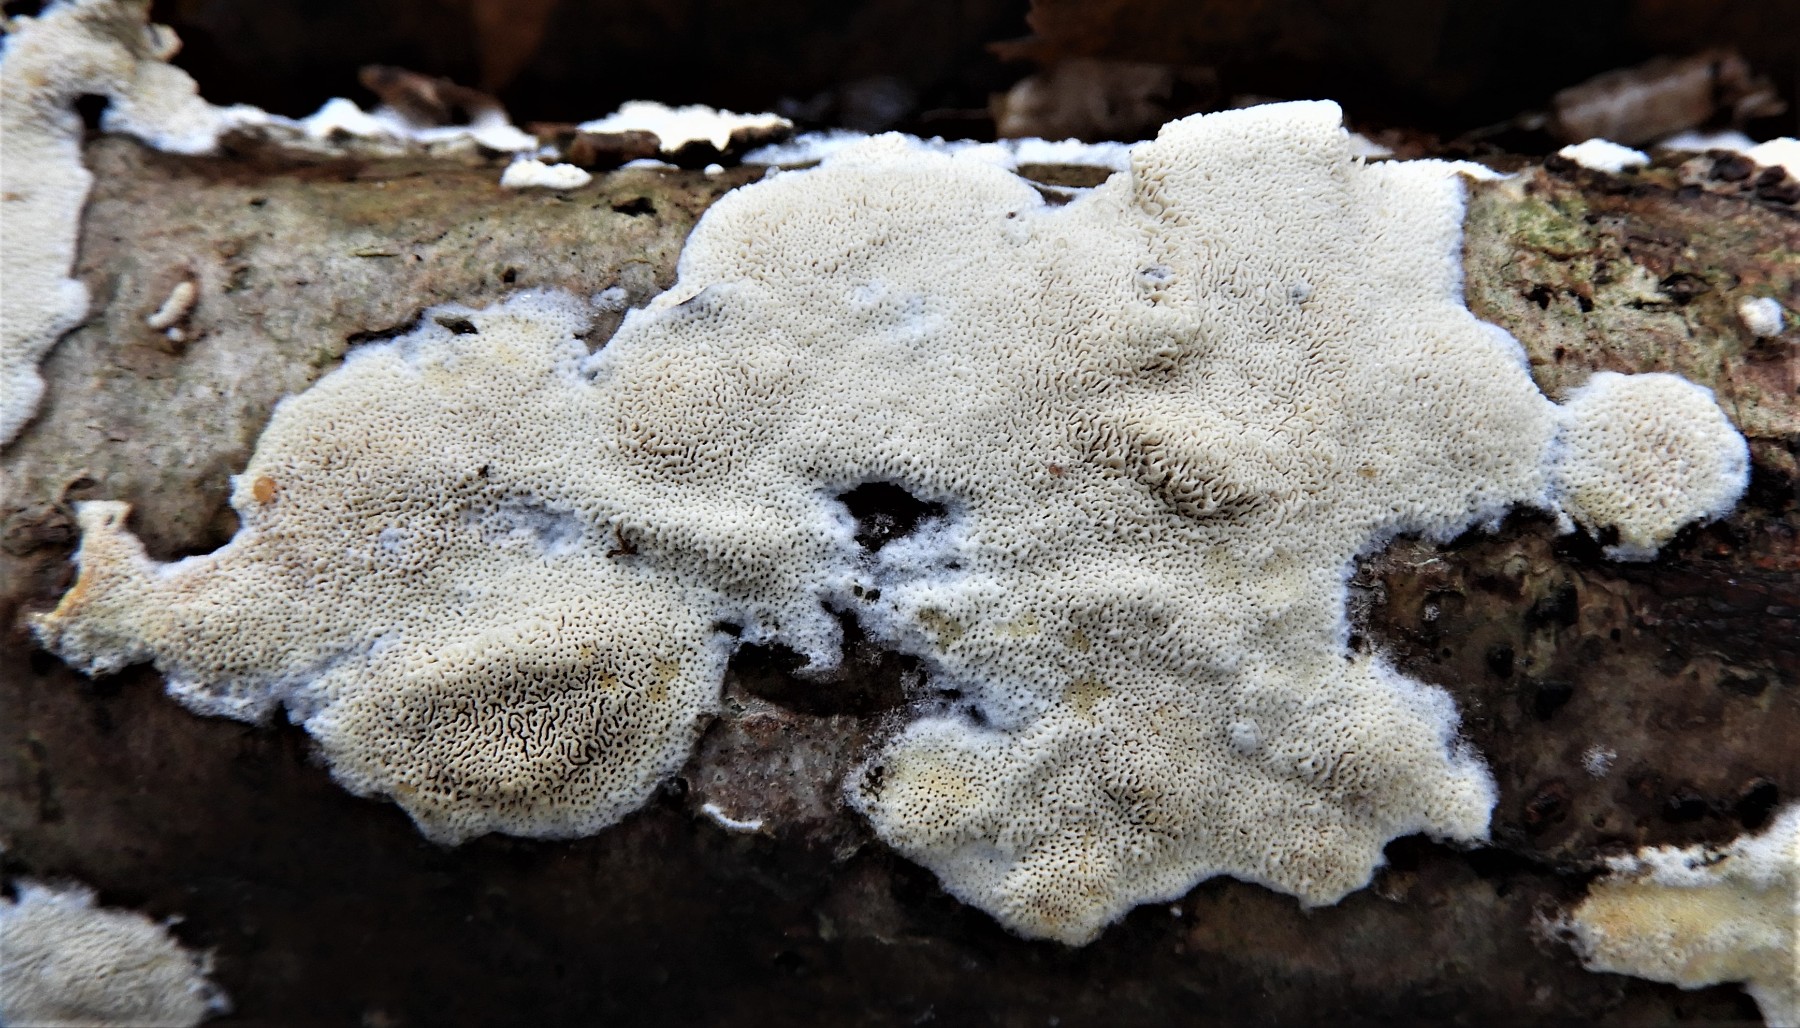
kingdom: Fungi
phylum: Basidiomycota
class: Agaricomycetes
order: Hymenochaetales
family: Schizoporaceae
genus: Xylodon
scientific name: Xylodon subtropicus
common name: labyrint-tandsvamp
